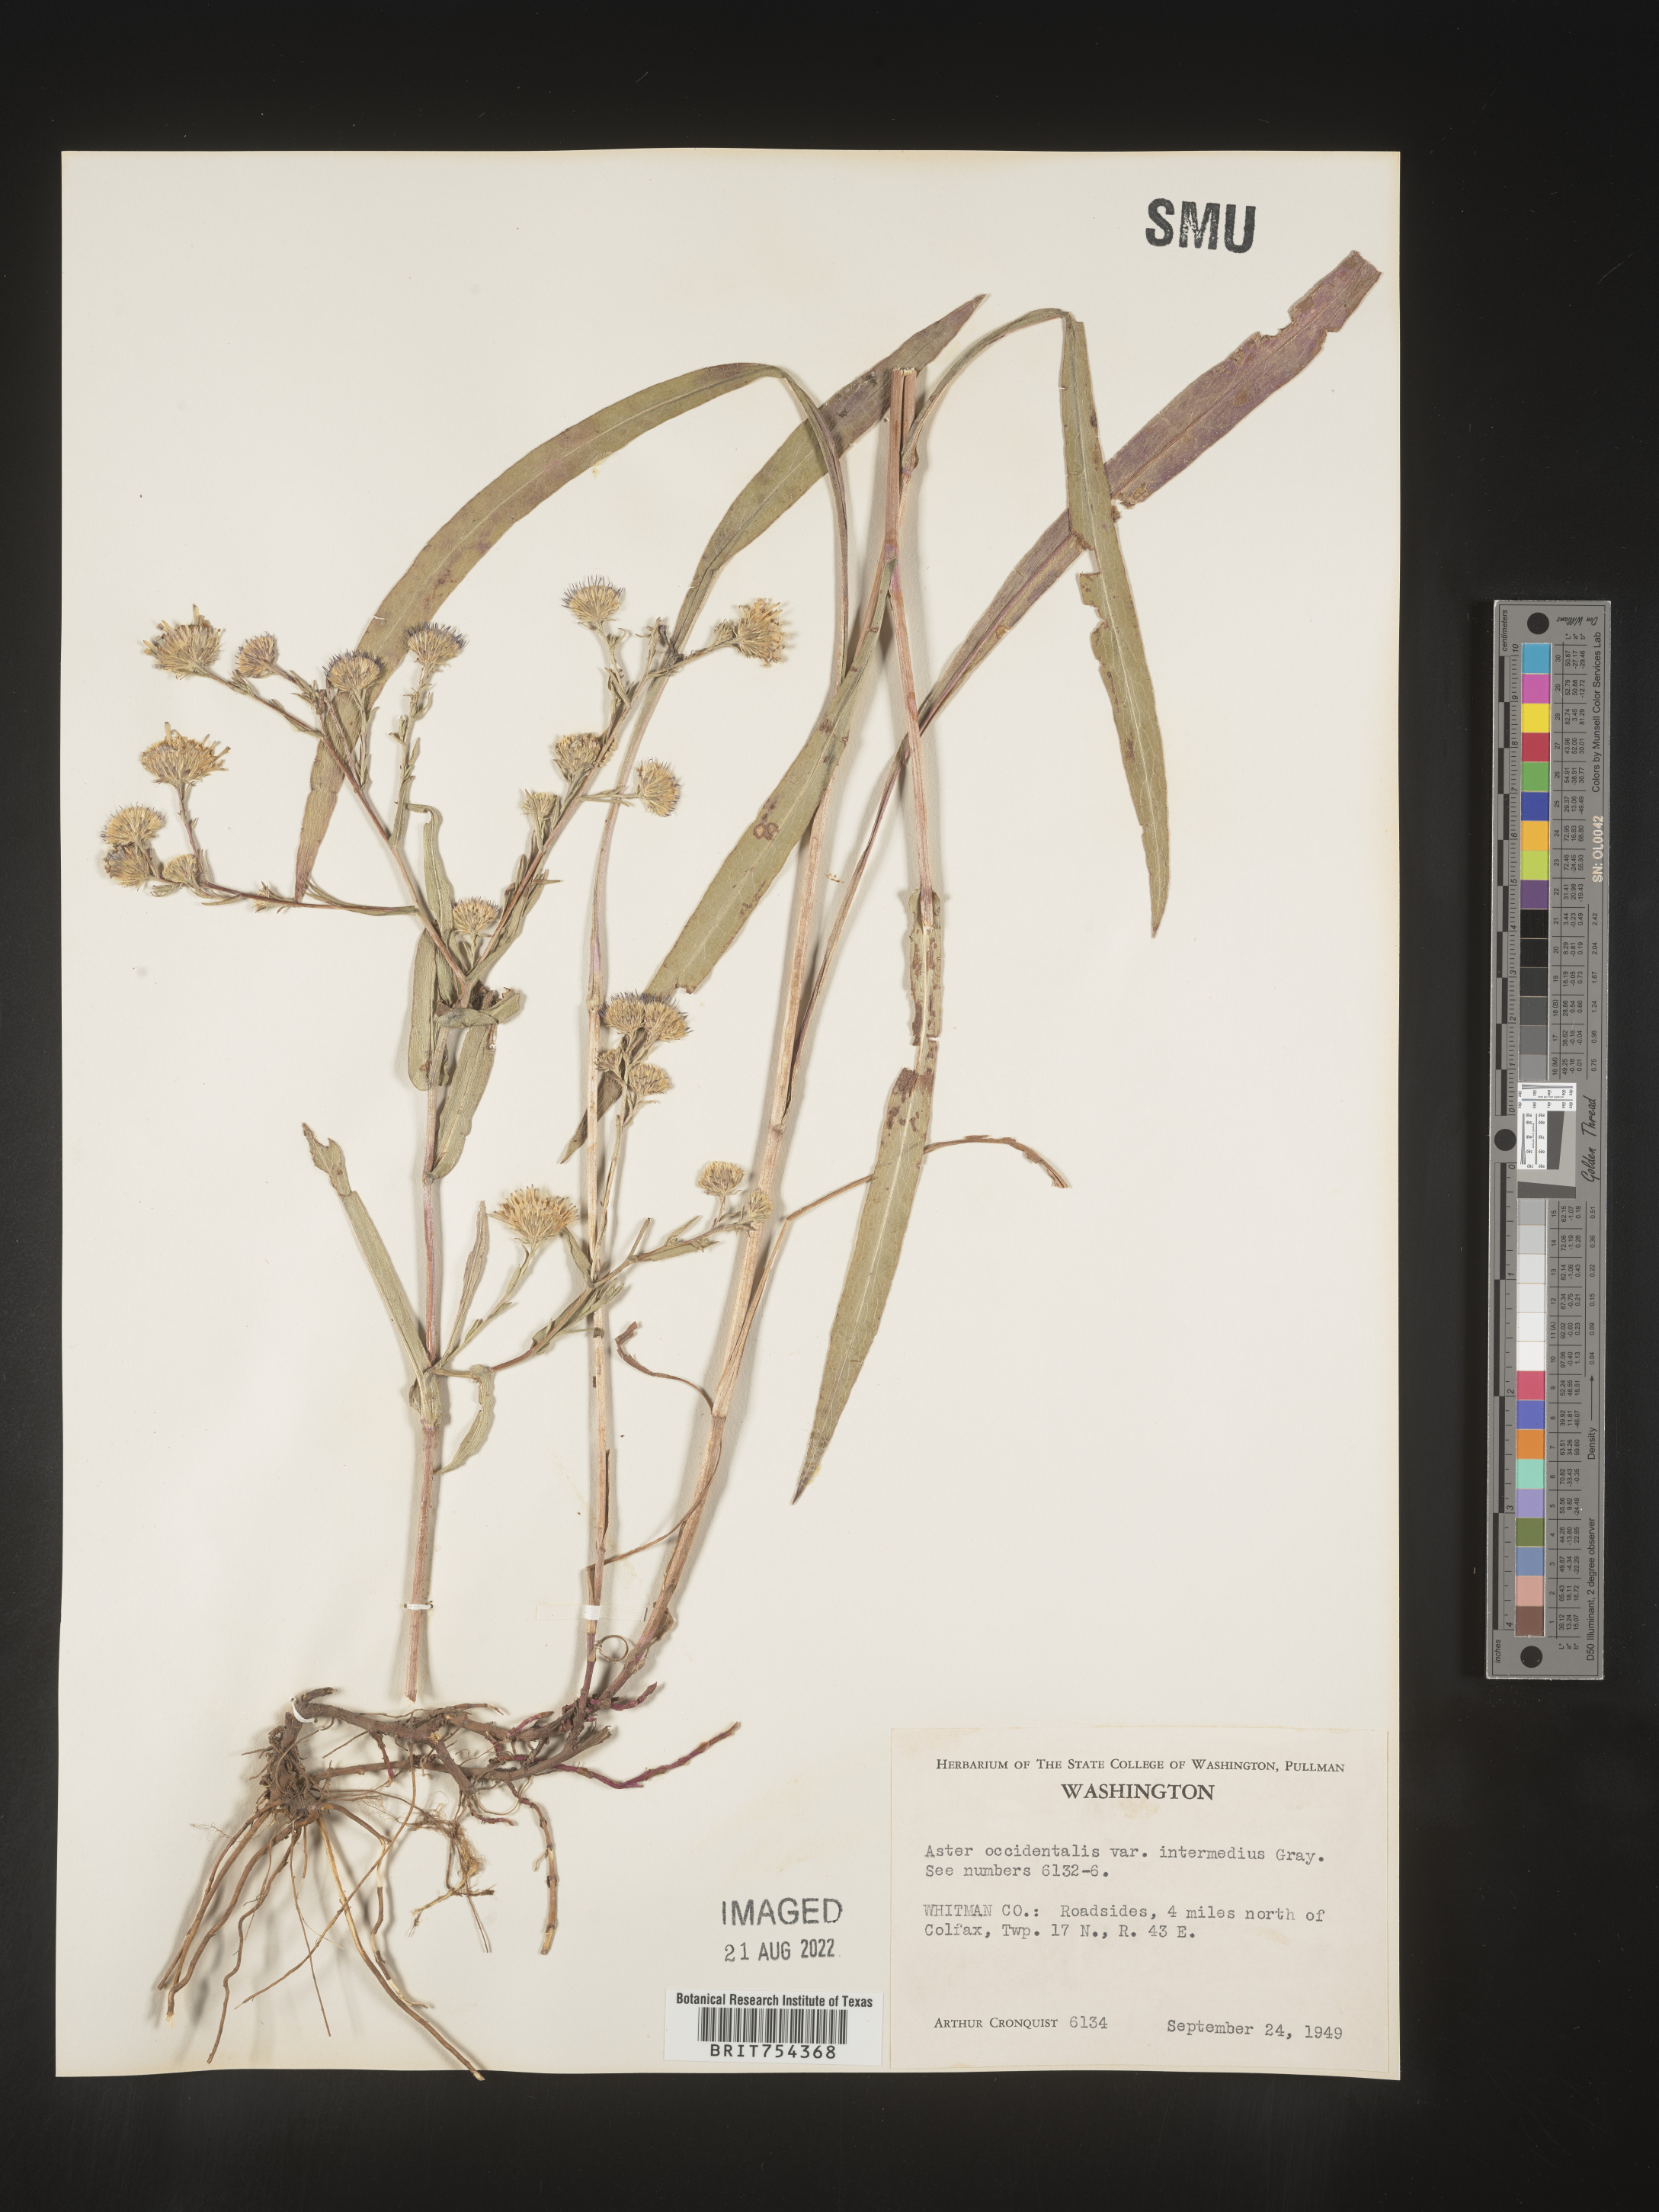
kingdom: Plantae
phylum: Tracheophyta
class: Magnoliopsida
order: Asterales
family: Asteraceae
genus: Symphyotrichum
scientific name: Symphyotrichum spathulatum
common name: Western mountain aster
